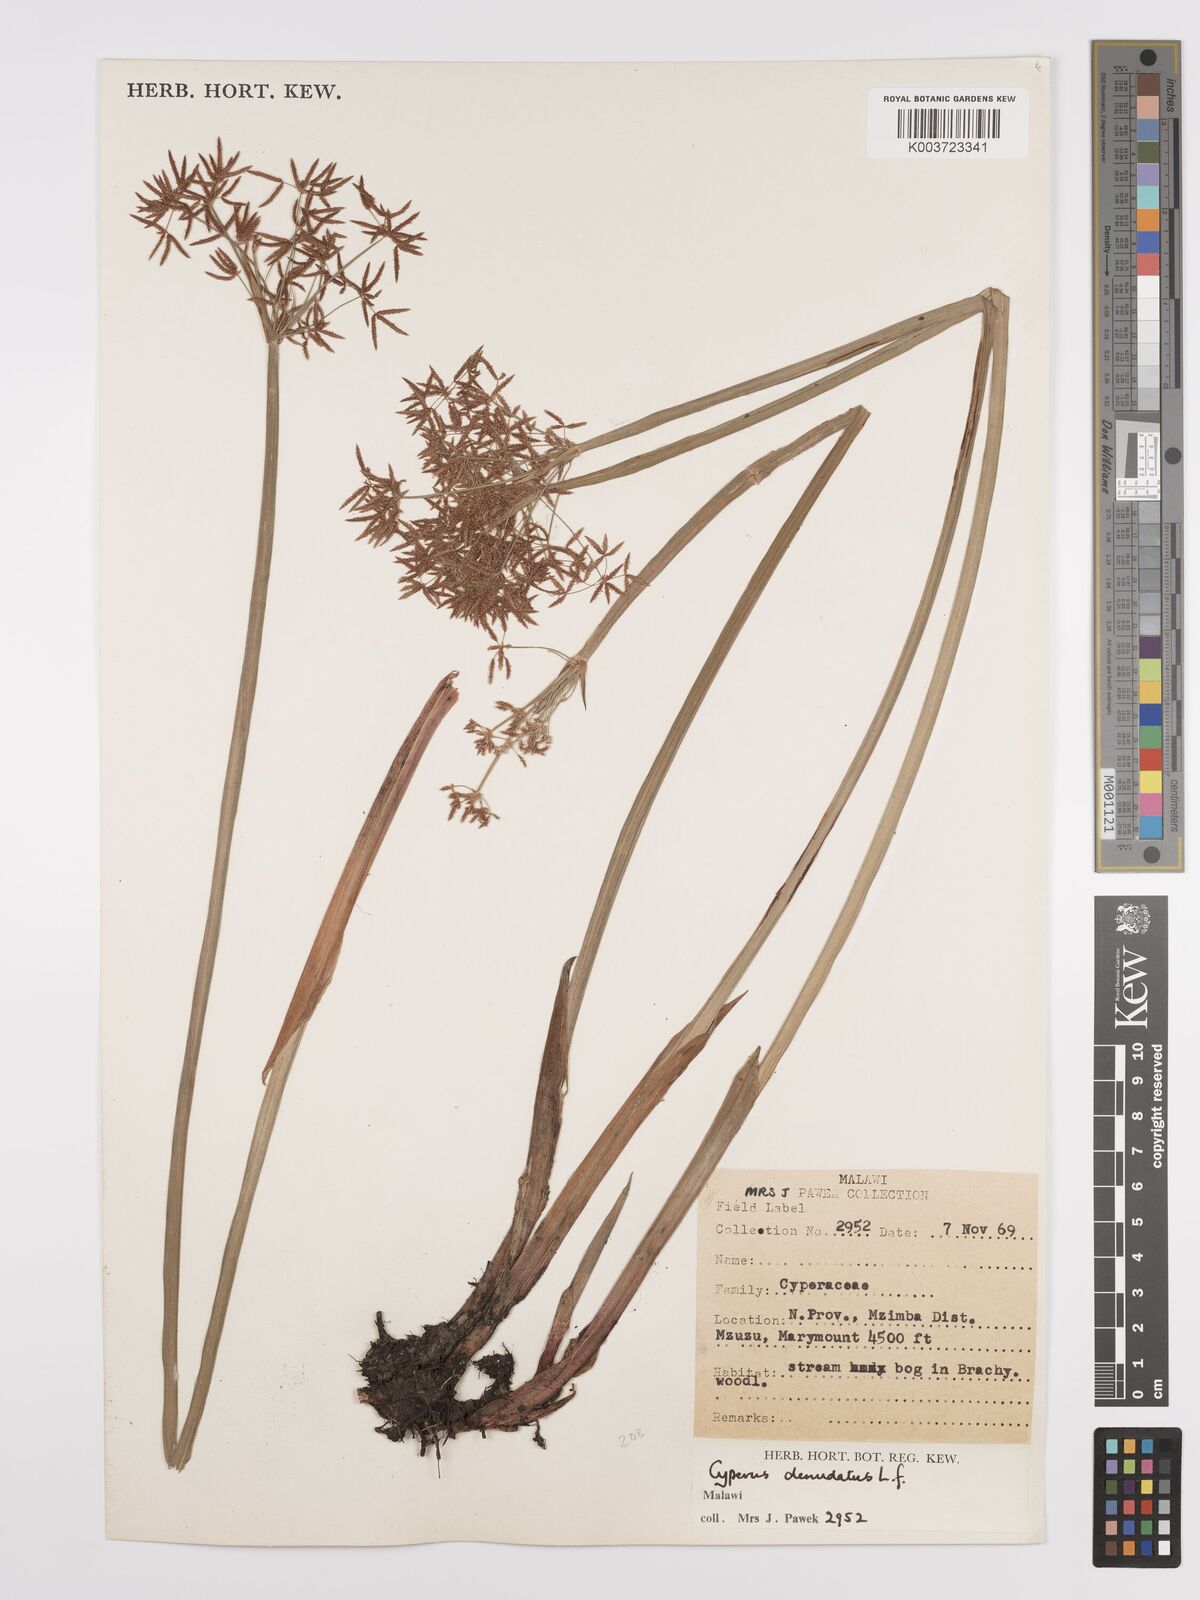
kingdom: Plantae
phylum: Tracheophyta
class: Liliopsida
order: Poales
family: Cyperaceae
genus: Cyperus
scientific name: Cyperus denudatus
